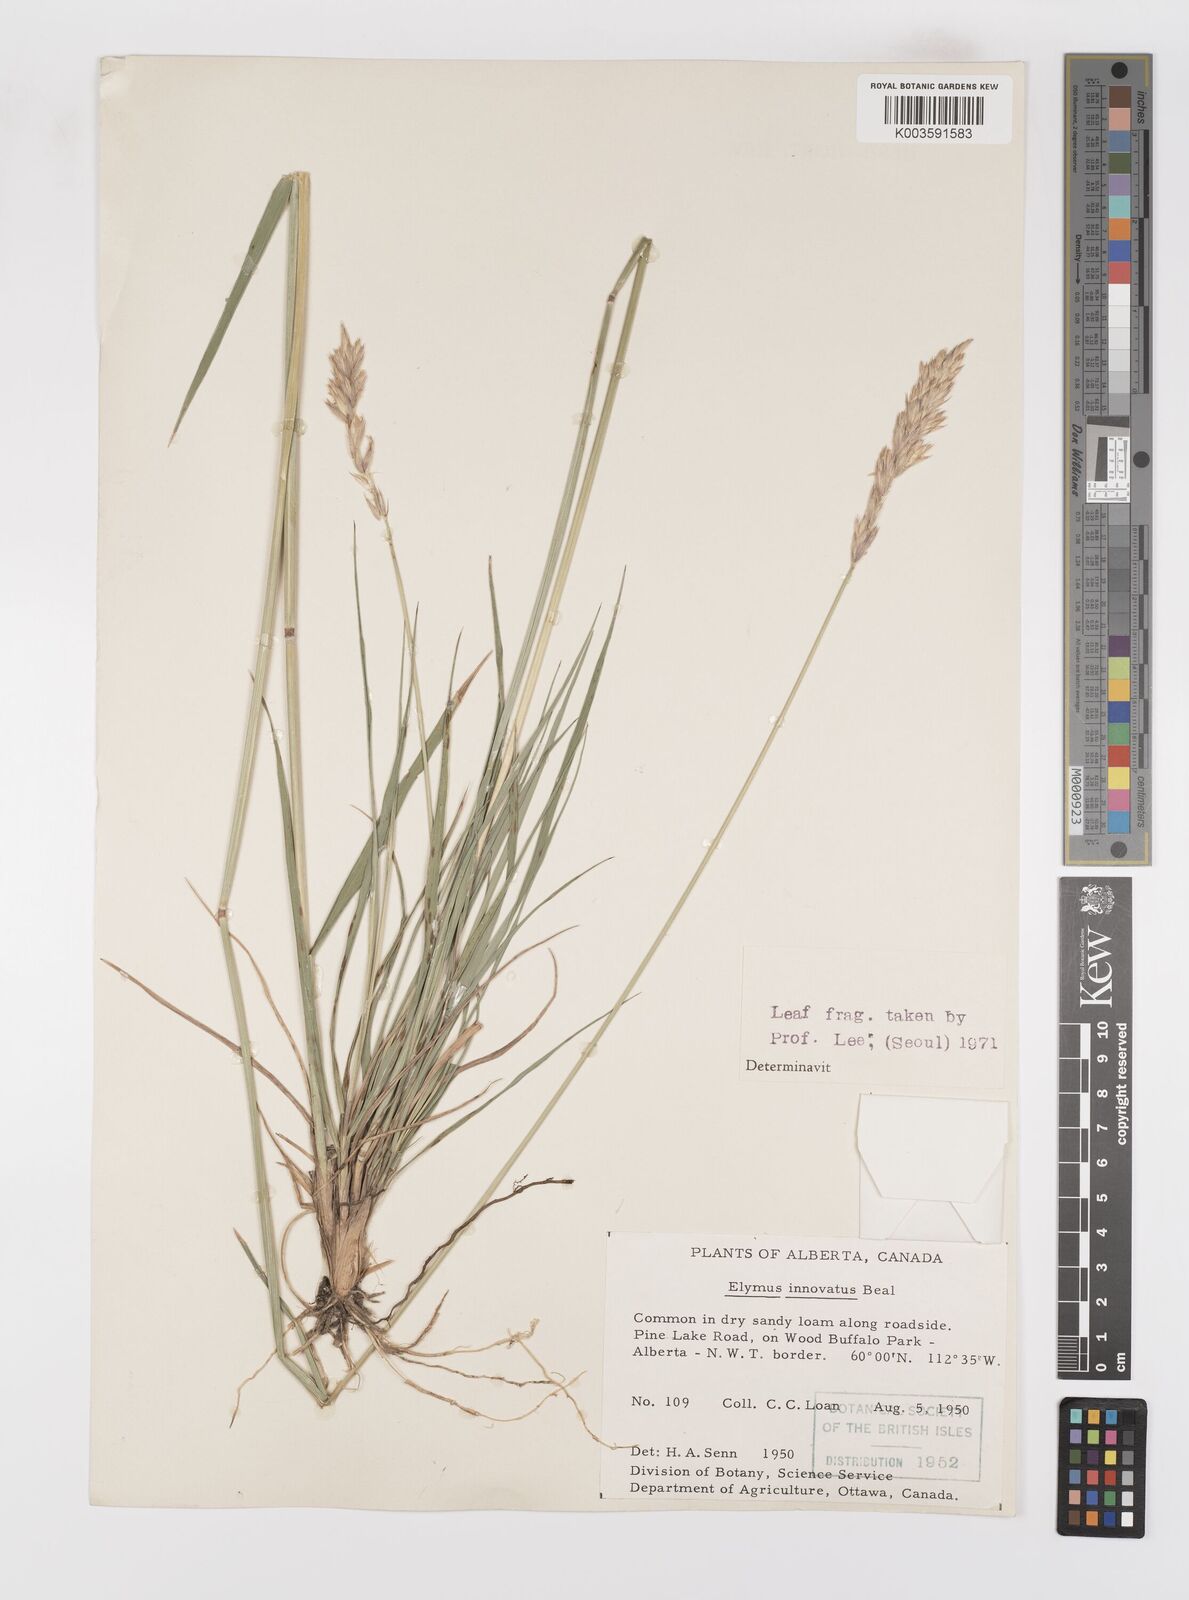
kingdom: Plantae
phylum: Tracheophyta
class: Liliopsida
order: Poales
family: Poaceae
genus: Leymus
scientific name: Leymus innovatus
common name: Boreal wild rye
